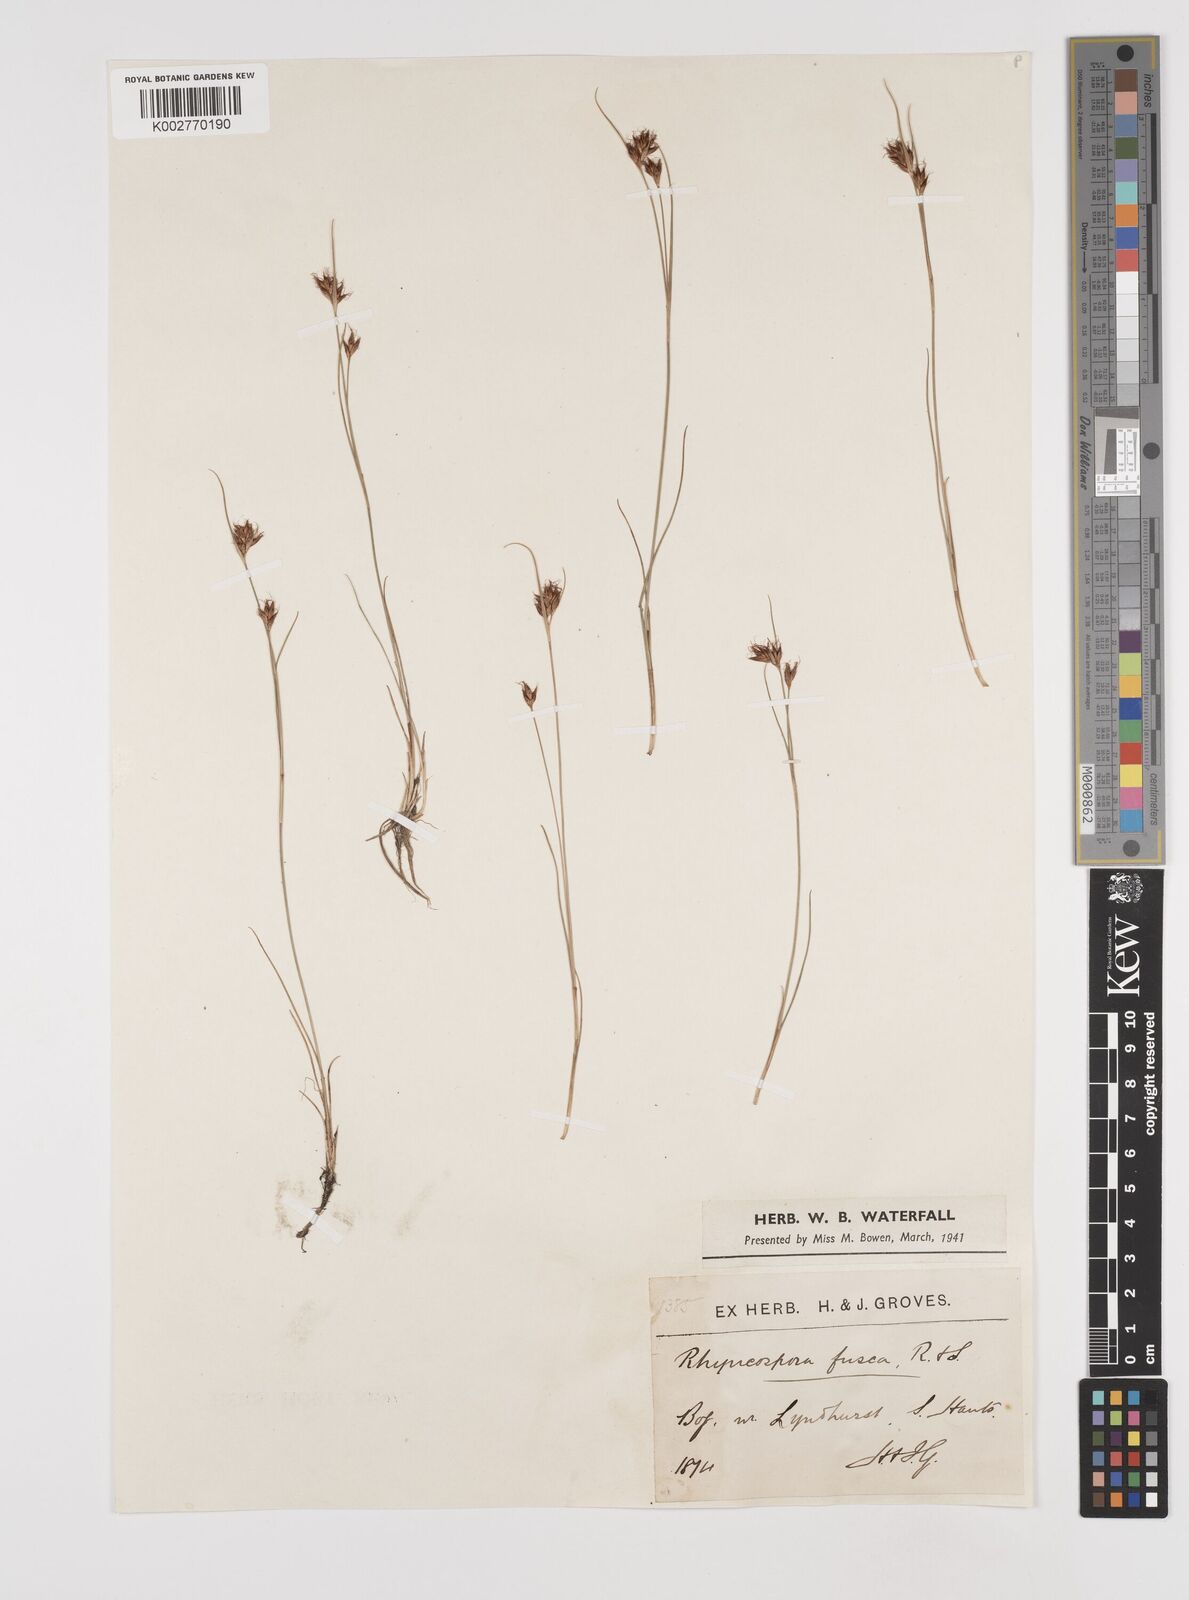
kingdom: Plantae
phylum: Tracheophyta
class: Liliopsida
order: Poales
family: Cyperaceae
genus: Rhynchospora
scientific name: Rhynchospora fusca
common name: Brown beak-sedge
